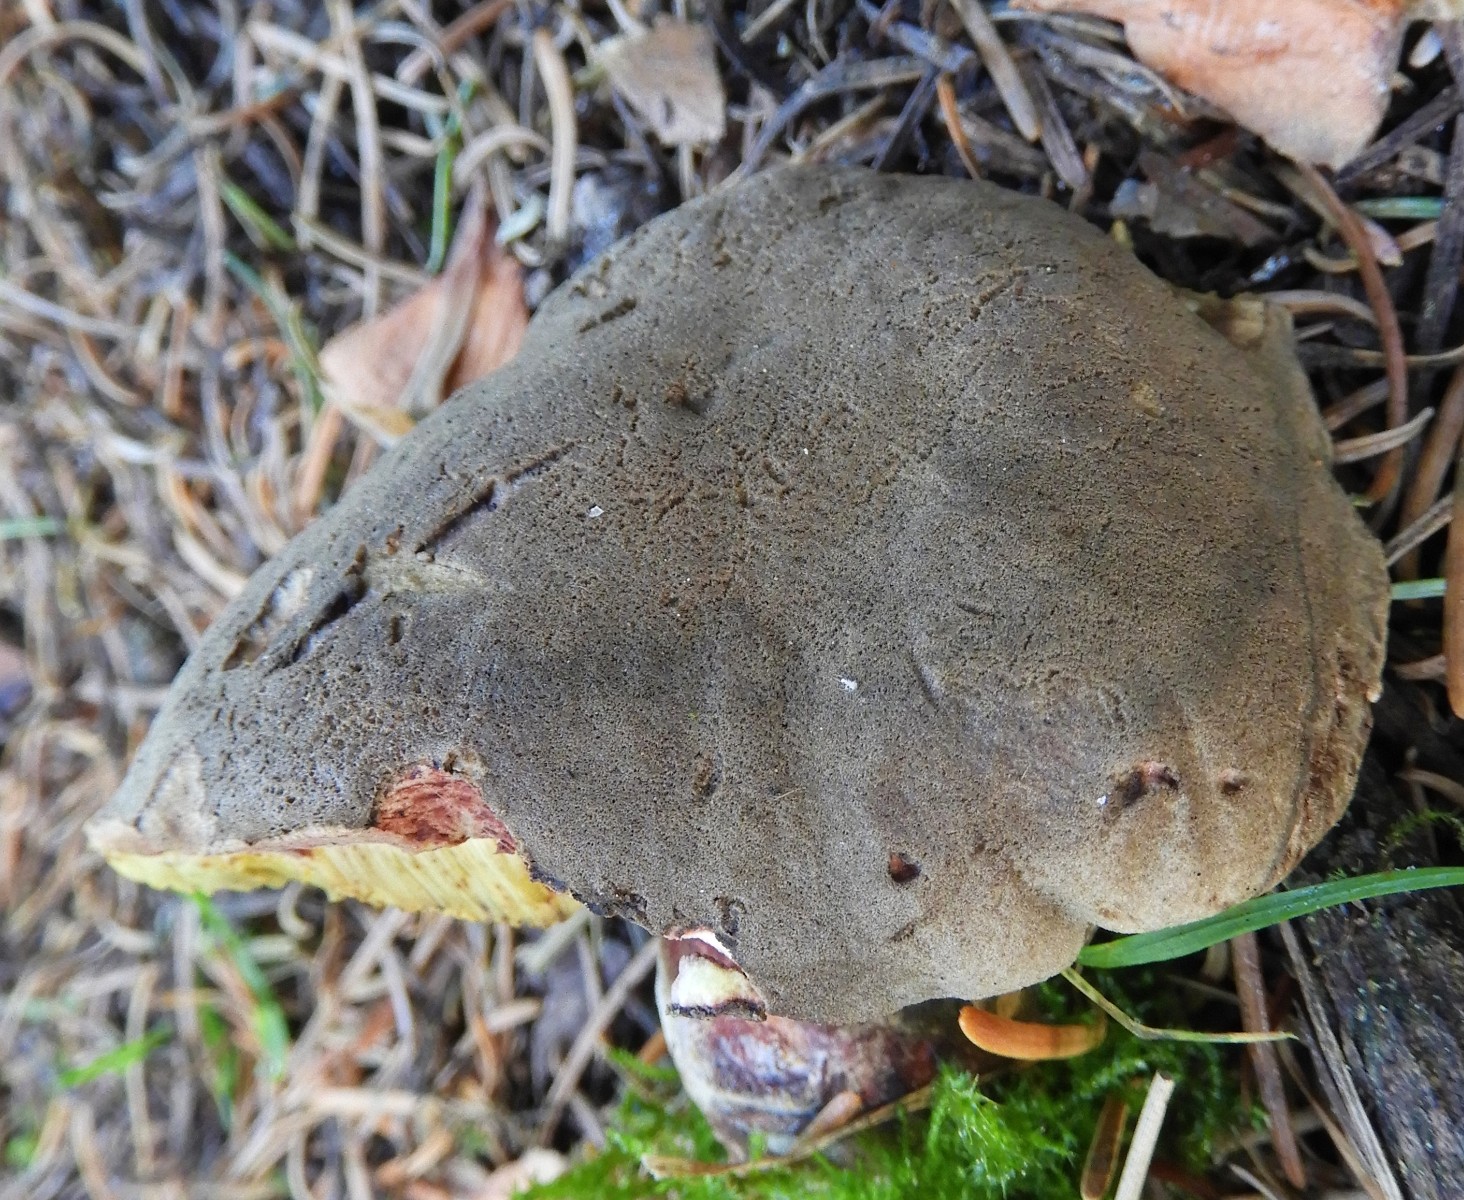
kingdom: Fungi
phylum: Basidiomycota
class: Agaricomycetes
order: Boletales
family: Boletaceae
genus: Xerocomellus
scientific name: Xerocomellus pruinatus
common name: dugget rørhat
